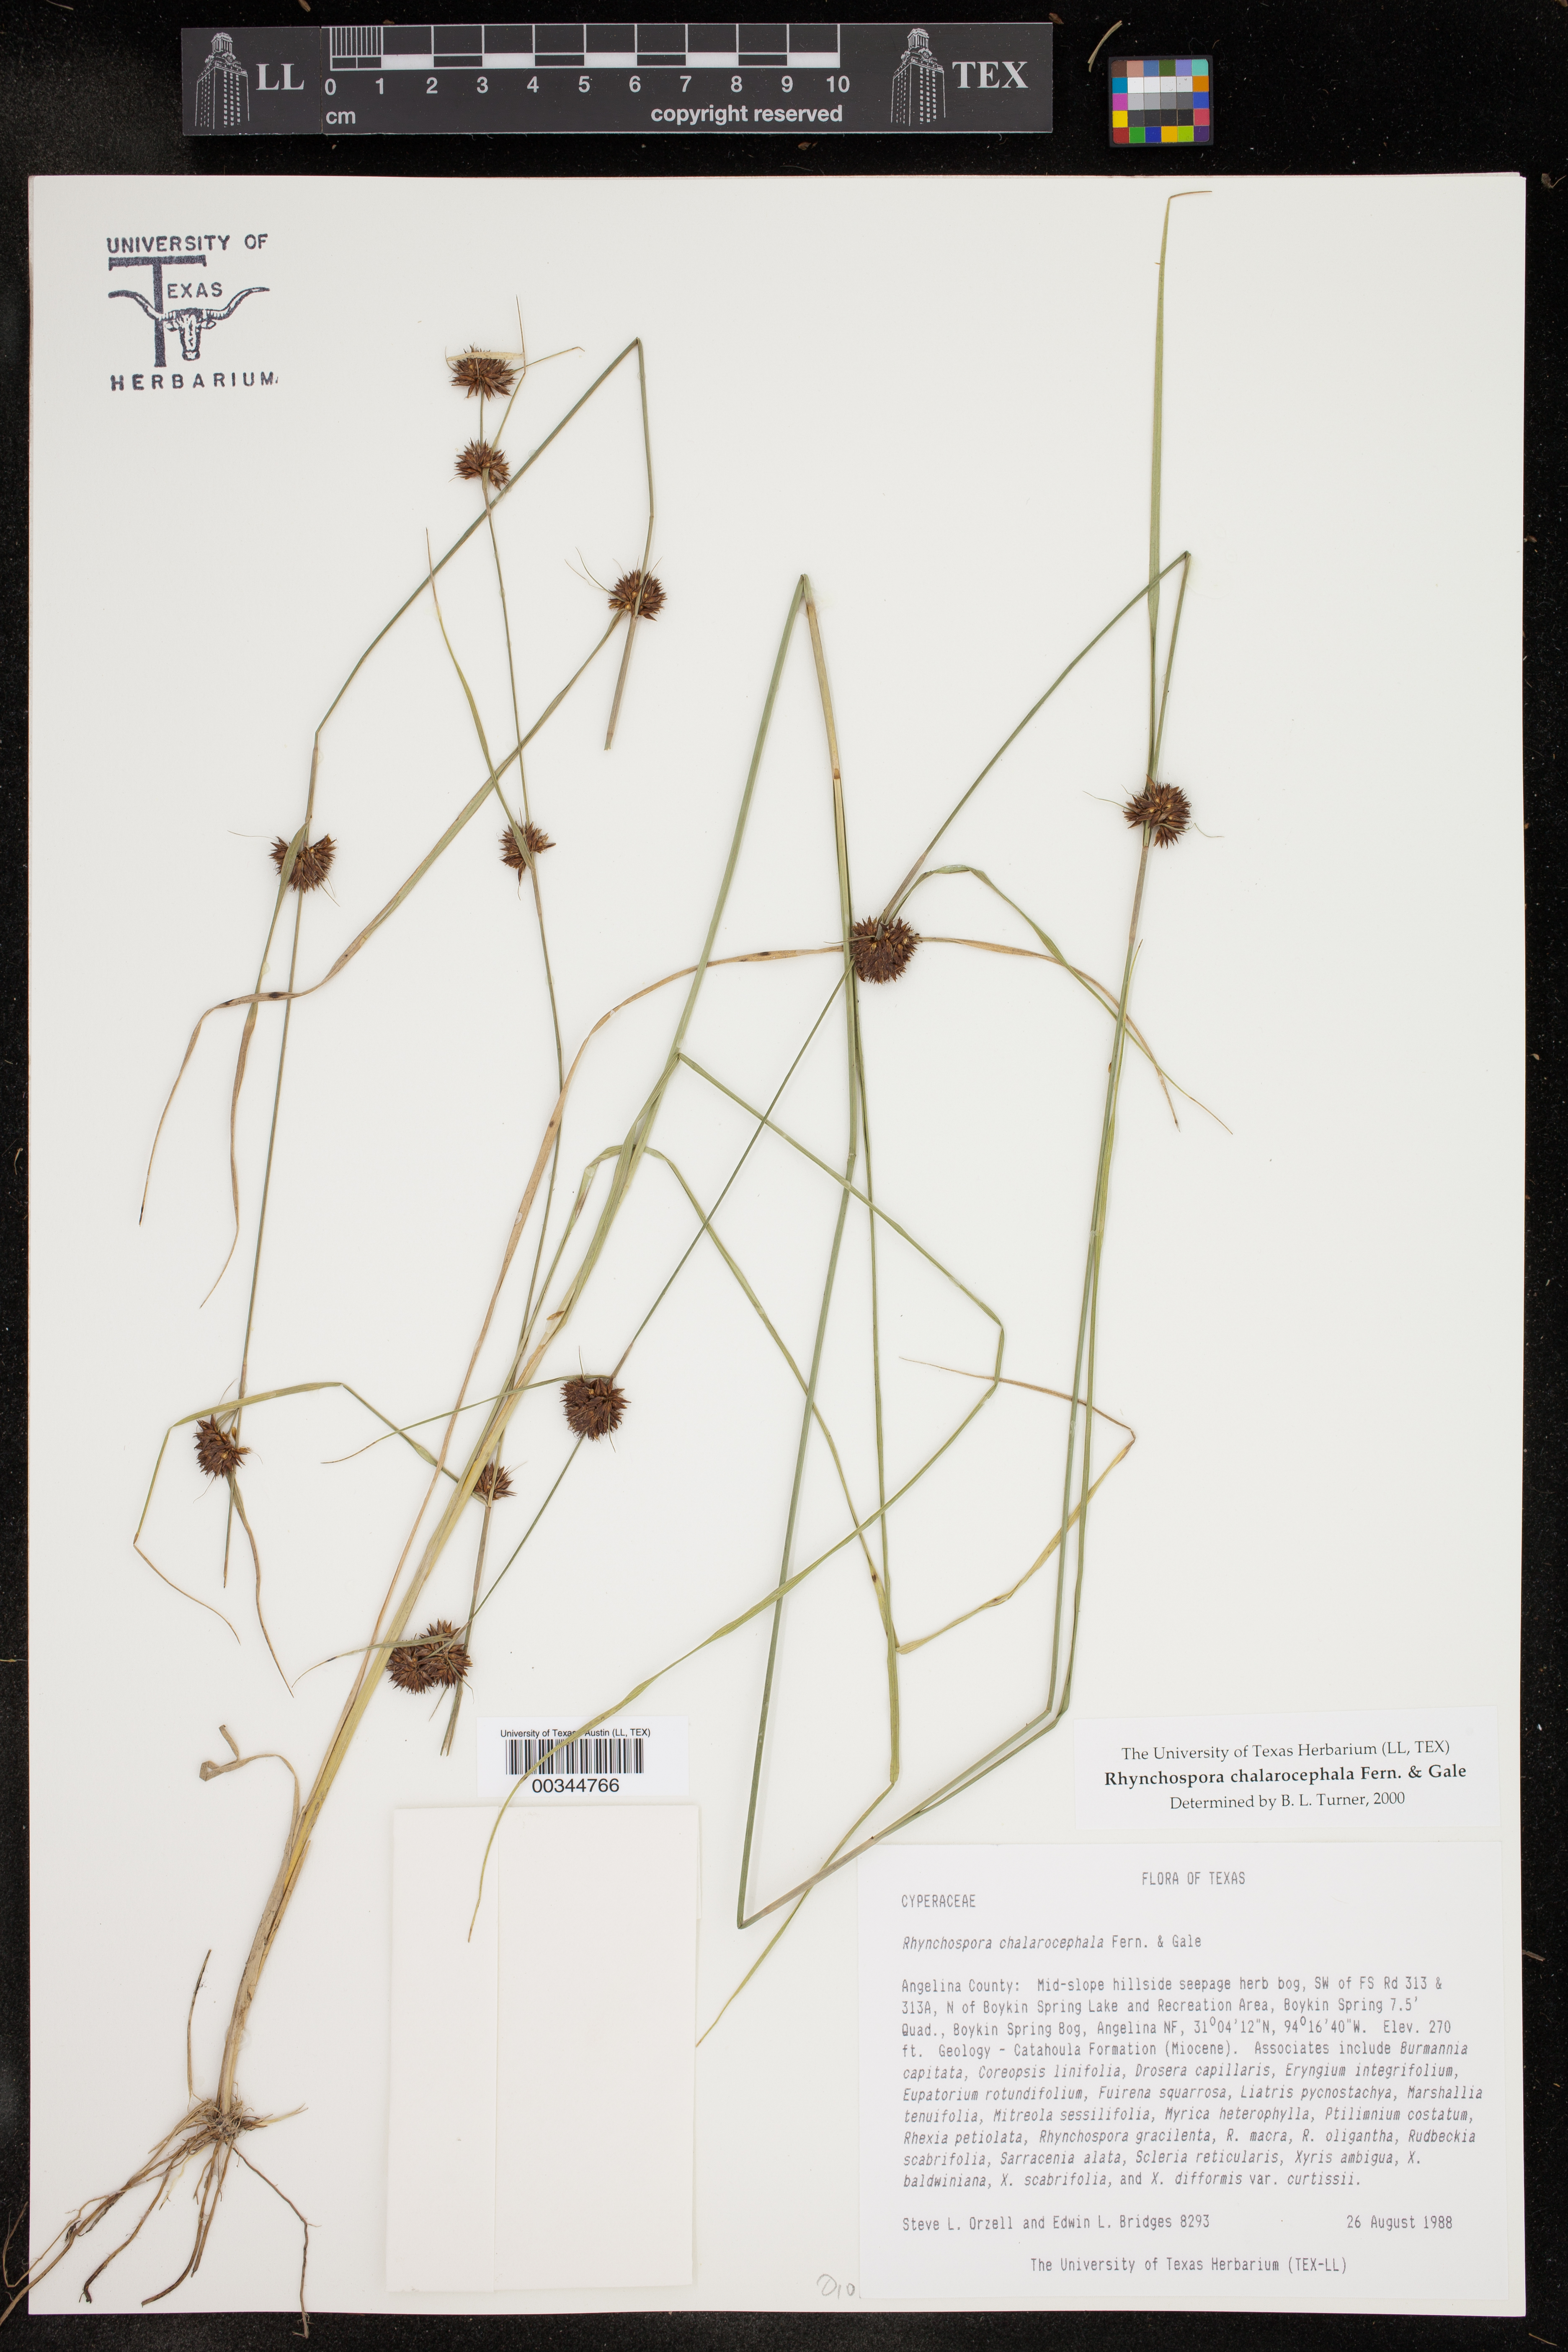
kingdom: Plantae
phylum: Tracheophyta
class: Liliopsida
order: Poales
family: Cyperaceae
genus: Rhynchospora
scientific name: Rhynchospora chalarocephala
